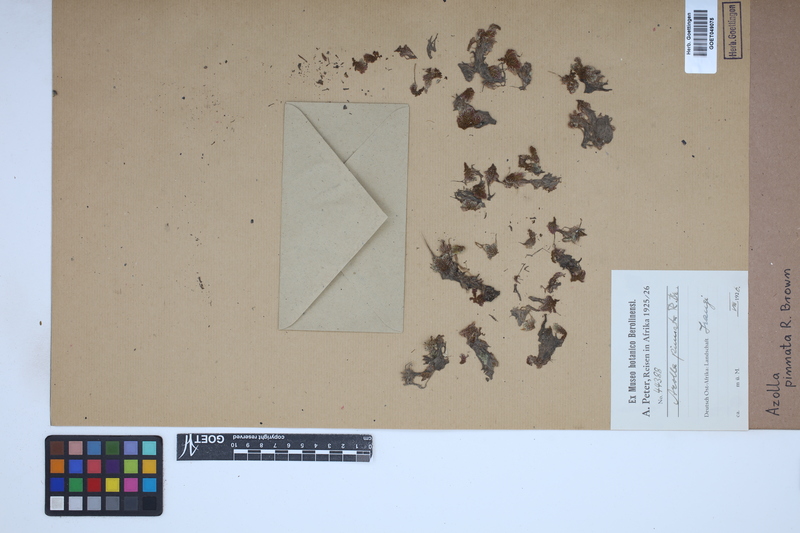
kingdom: Plantae
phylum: Tracheophyta
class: Polypodiopsida
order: Salviniales
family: Salviniaceae
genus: Azolla
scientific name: Azolla pinnata
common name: Ferny azolla
